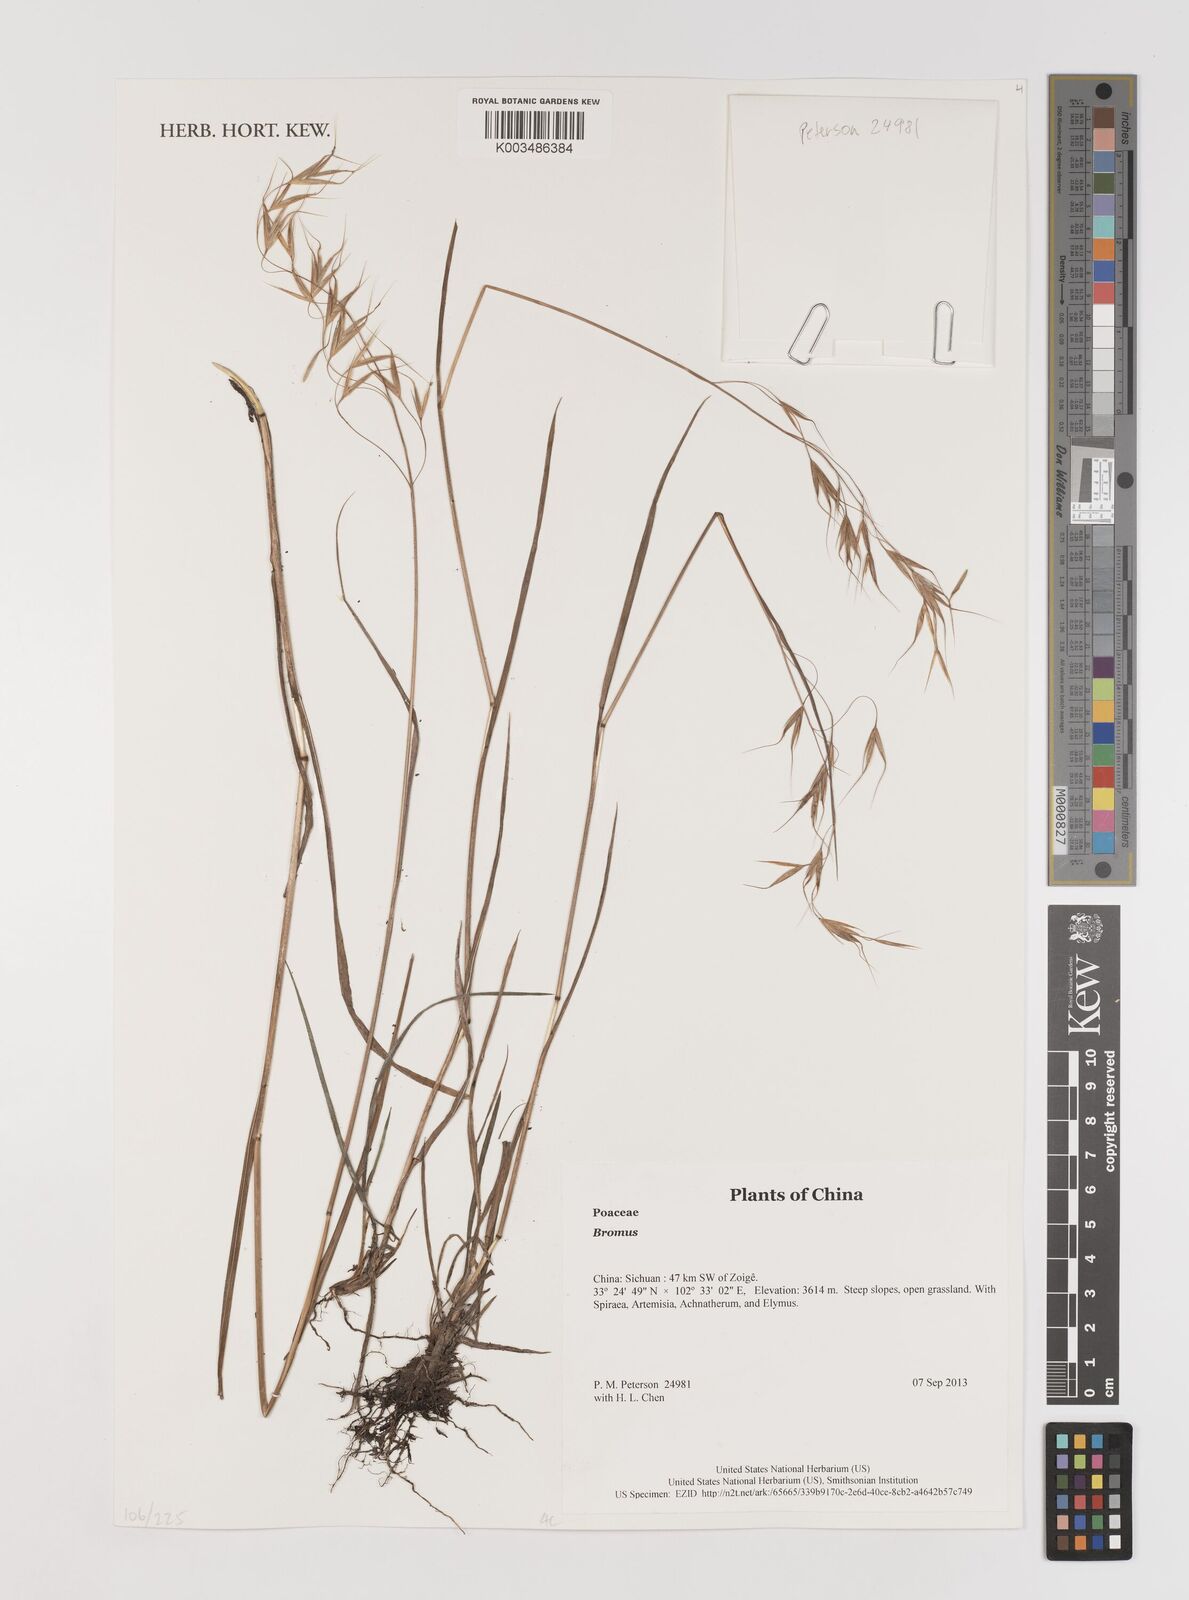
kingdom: Plantae
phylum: Tracheophyta
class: Liliopsida
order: Poales
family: Poaceae
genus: Bromus
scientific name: Bromus
